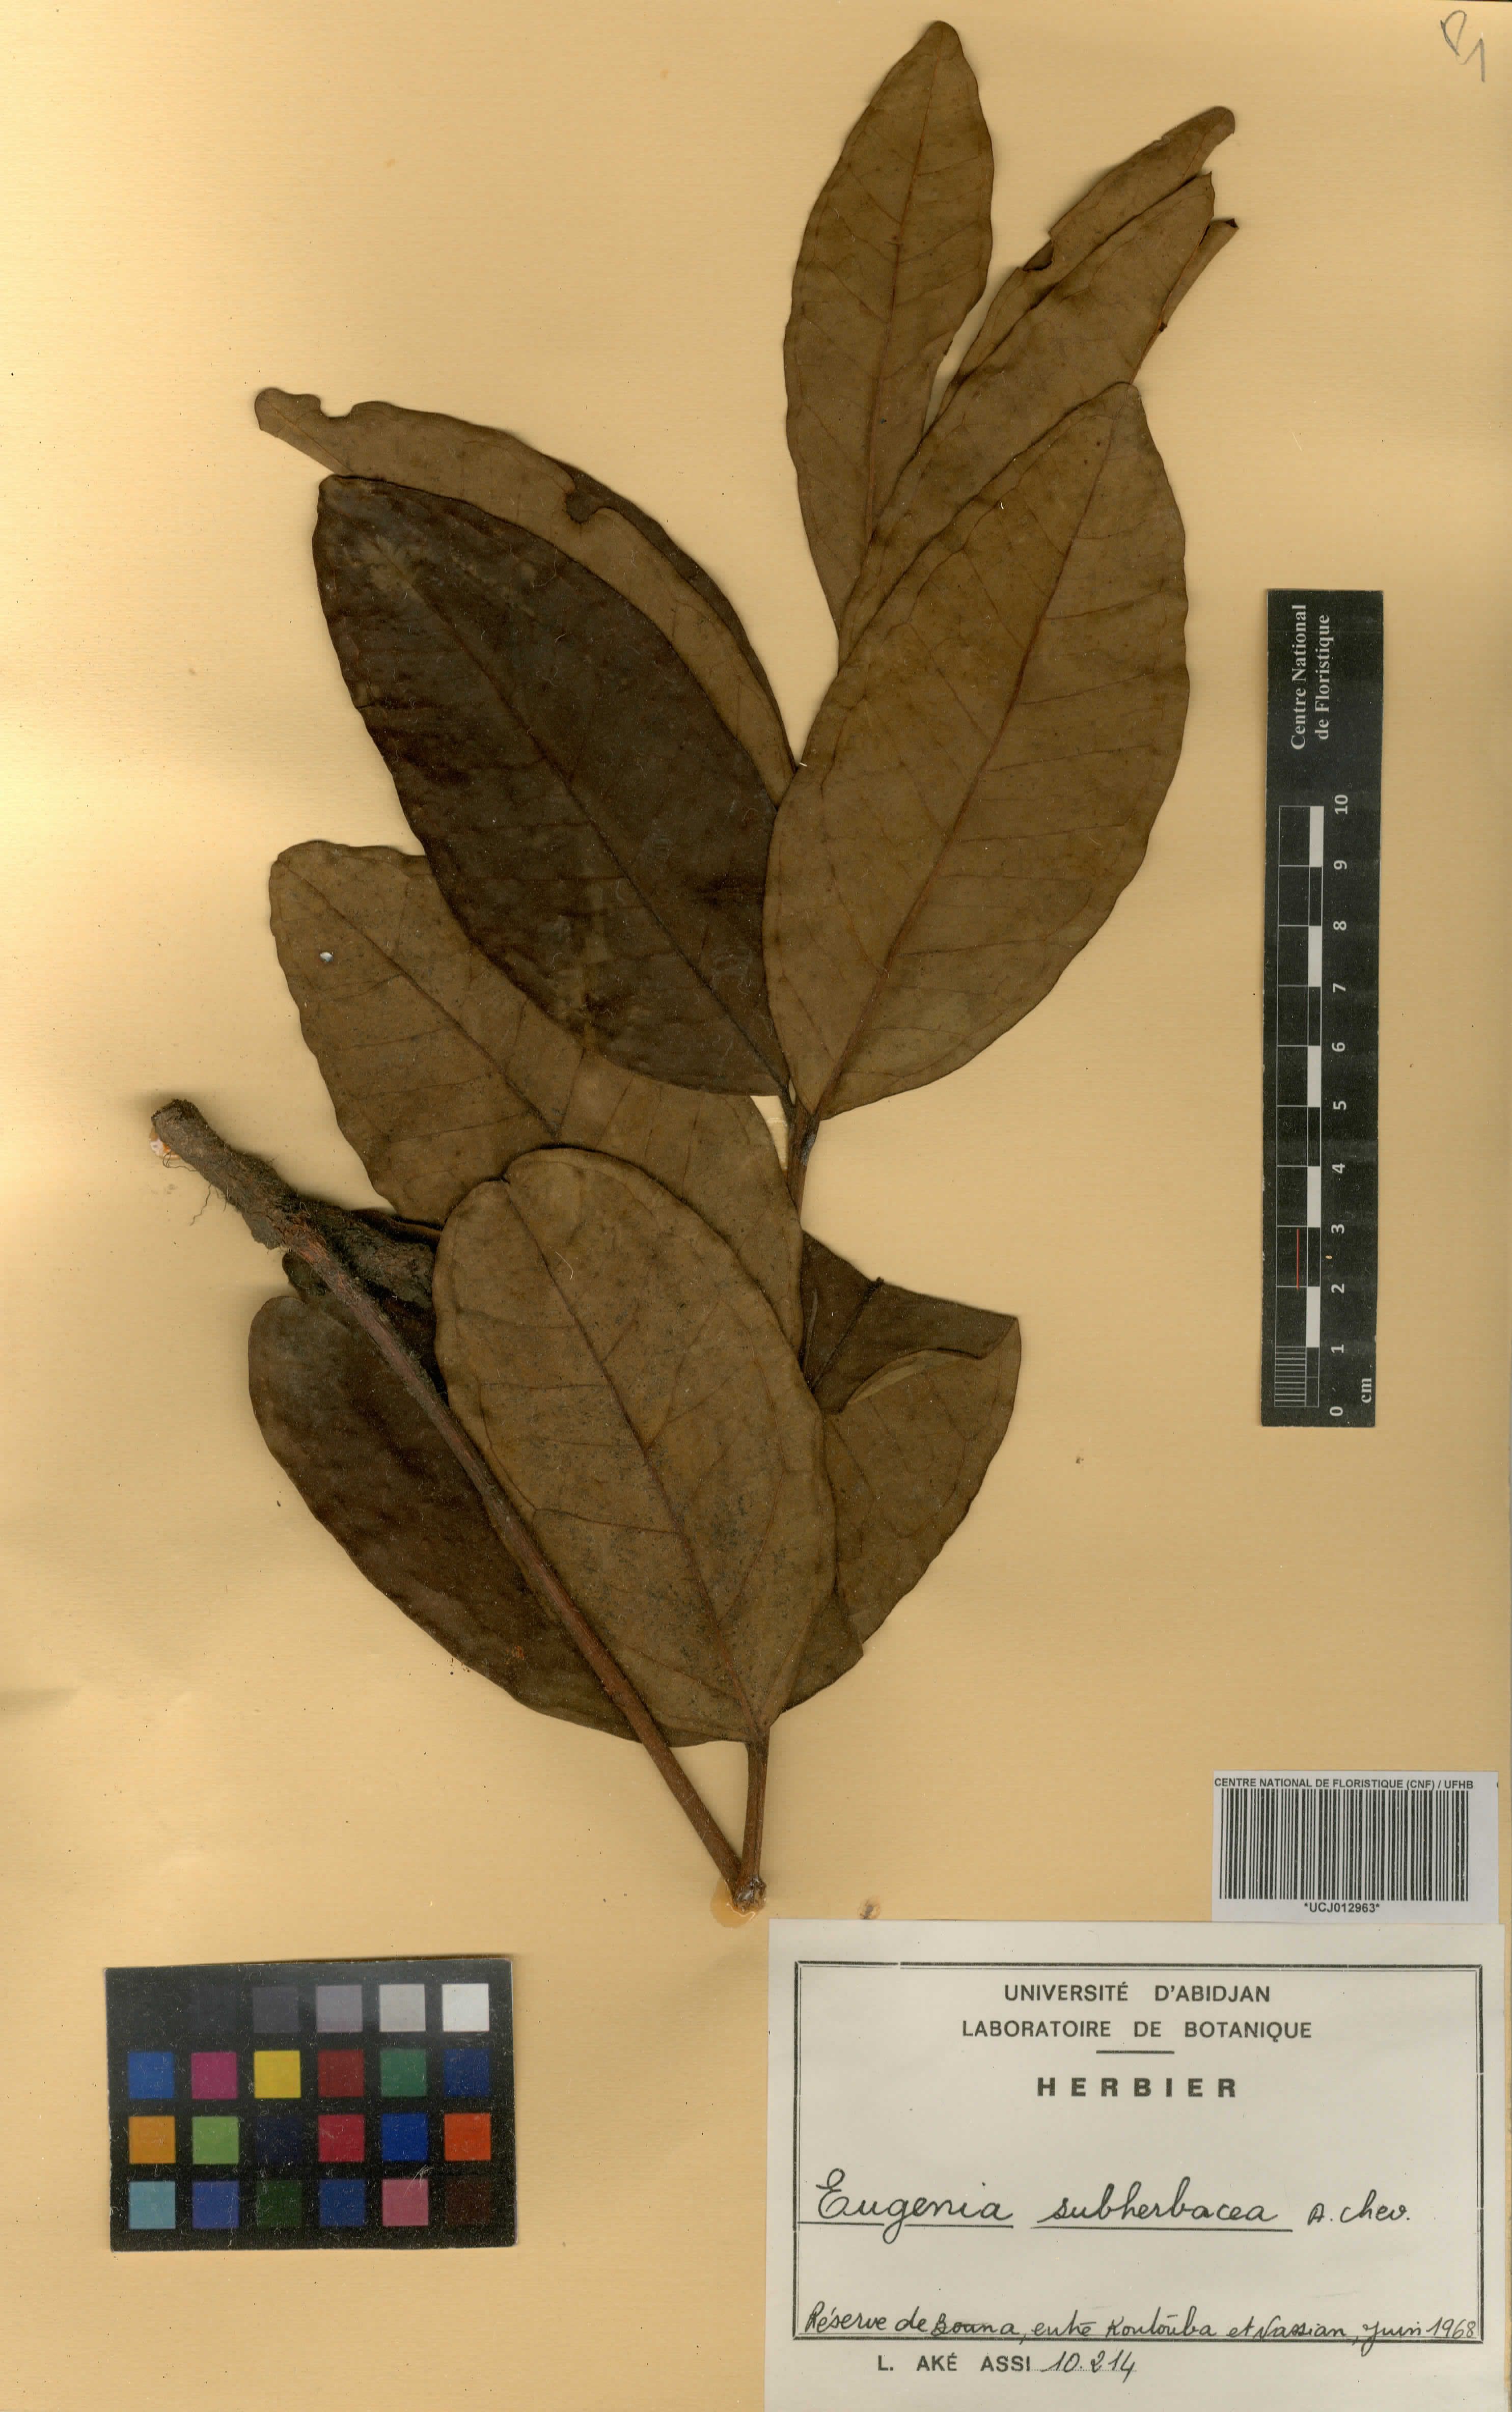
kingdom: Plantae
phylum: Tracheophyta
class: Magnoliopsida
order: Myrtales
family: Myrtaceae
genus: Eugenia
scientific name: Eugenia subherbacea
